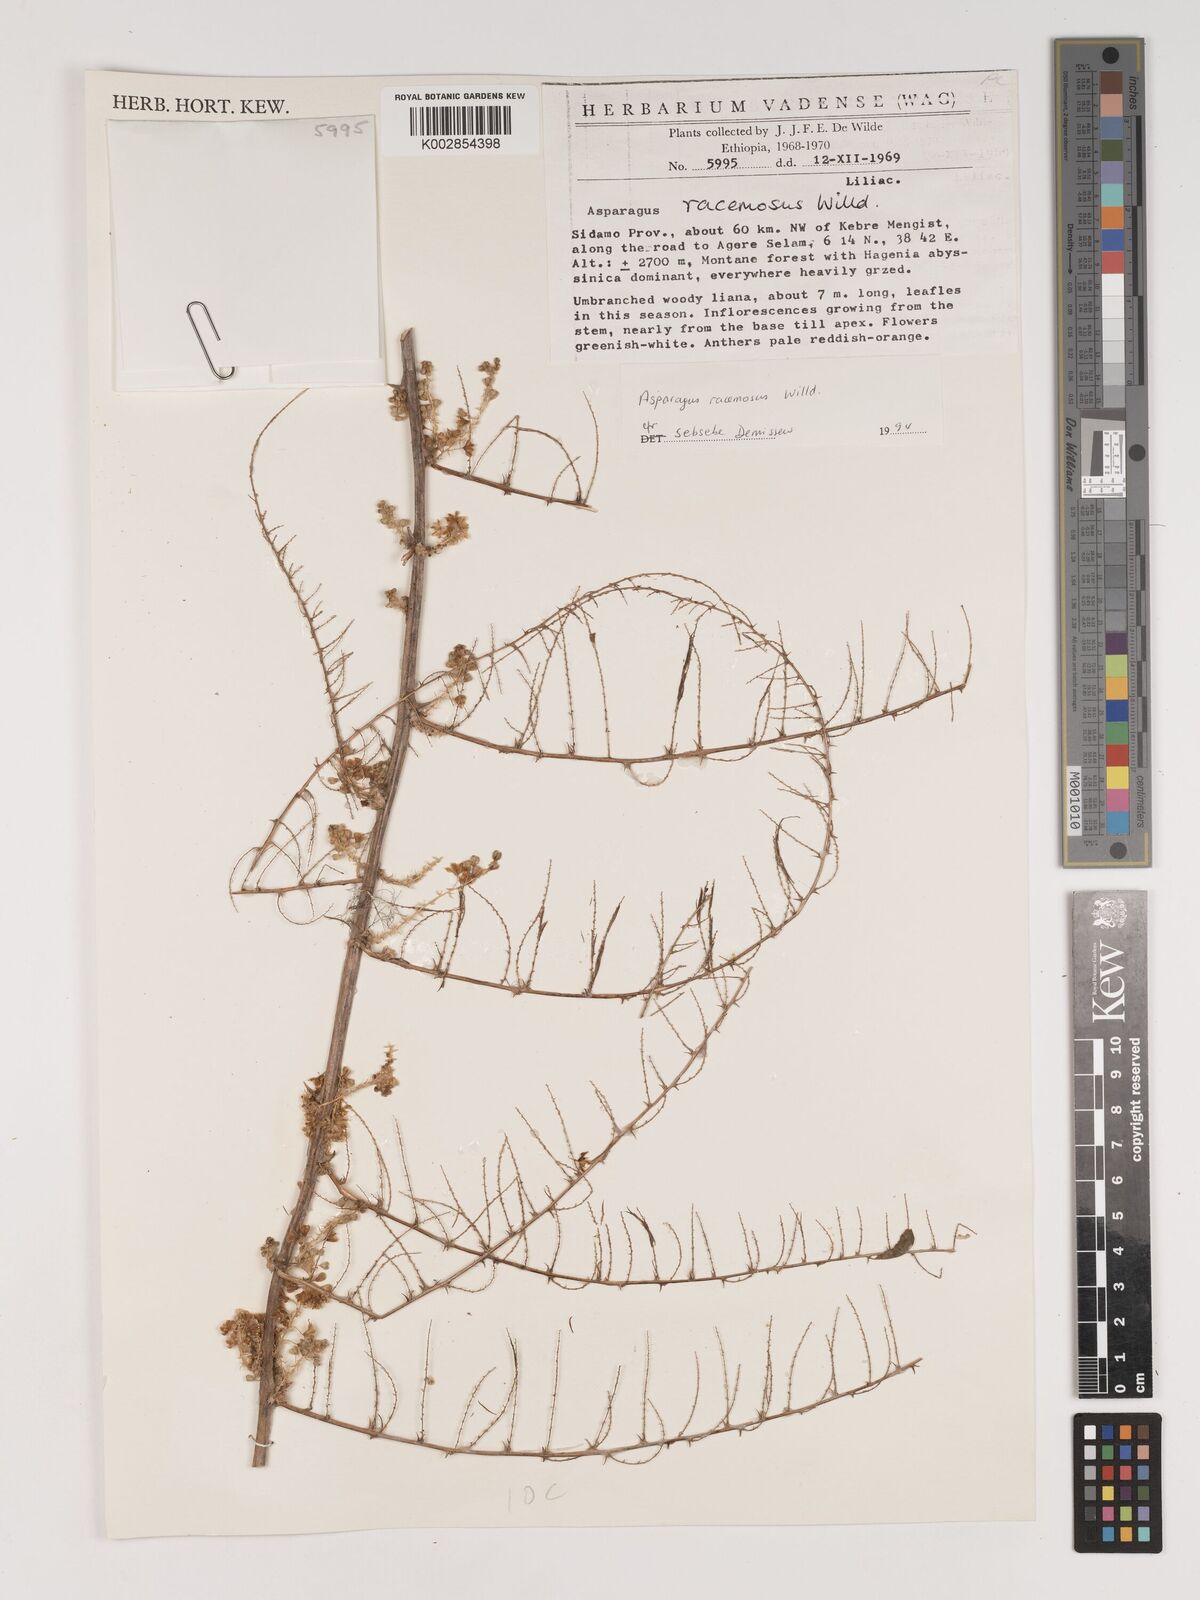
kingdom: Plantae
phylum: Tracheophyta
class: Liliopsida
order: Asparagales
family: Asparagaceae
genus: Asparagus
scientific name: Asparagus racemosus
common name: Asparagus-fern
